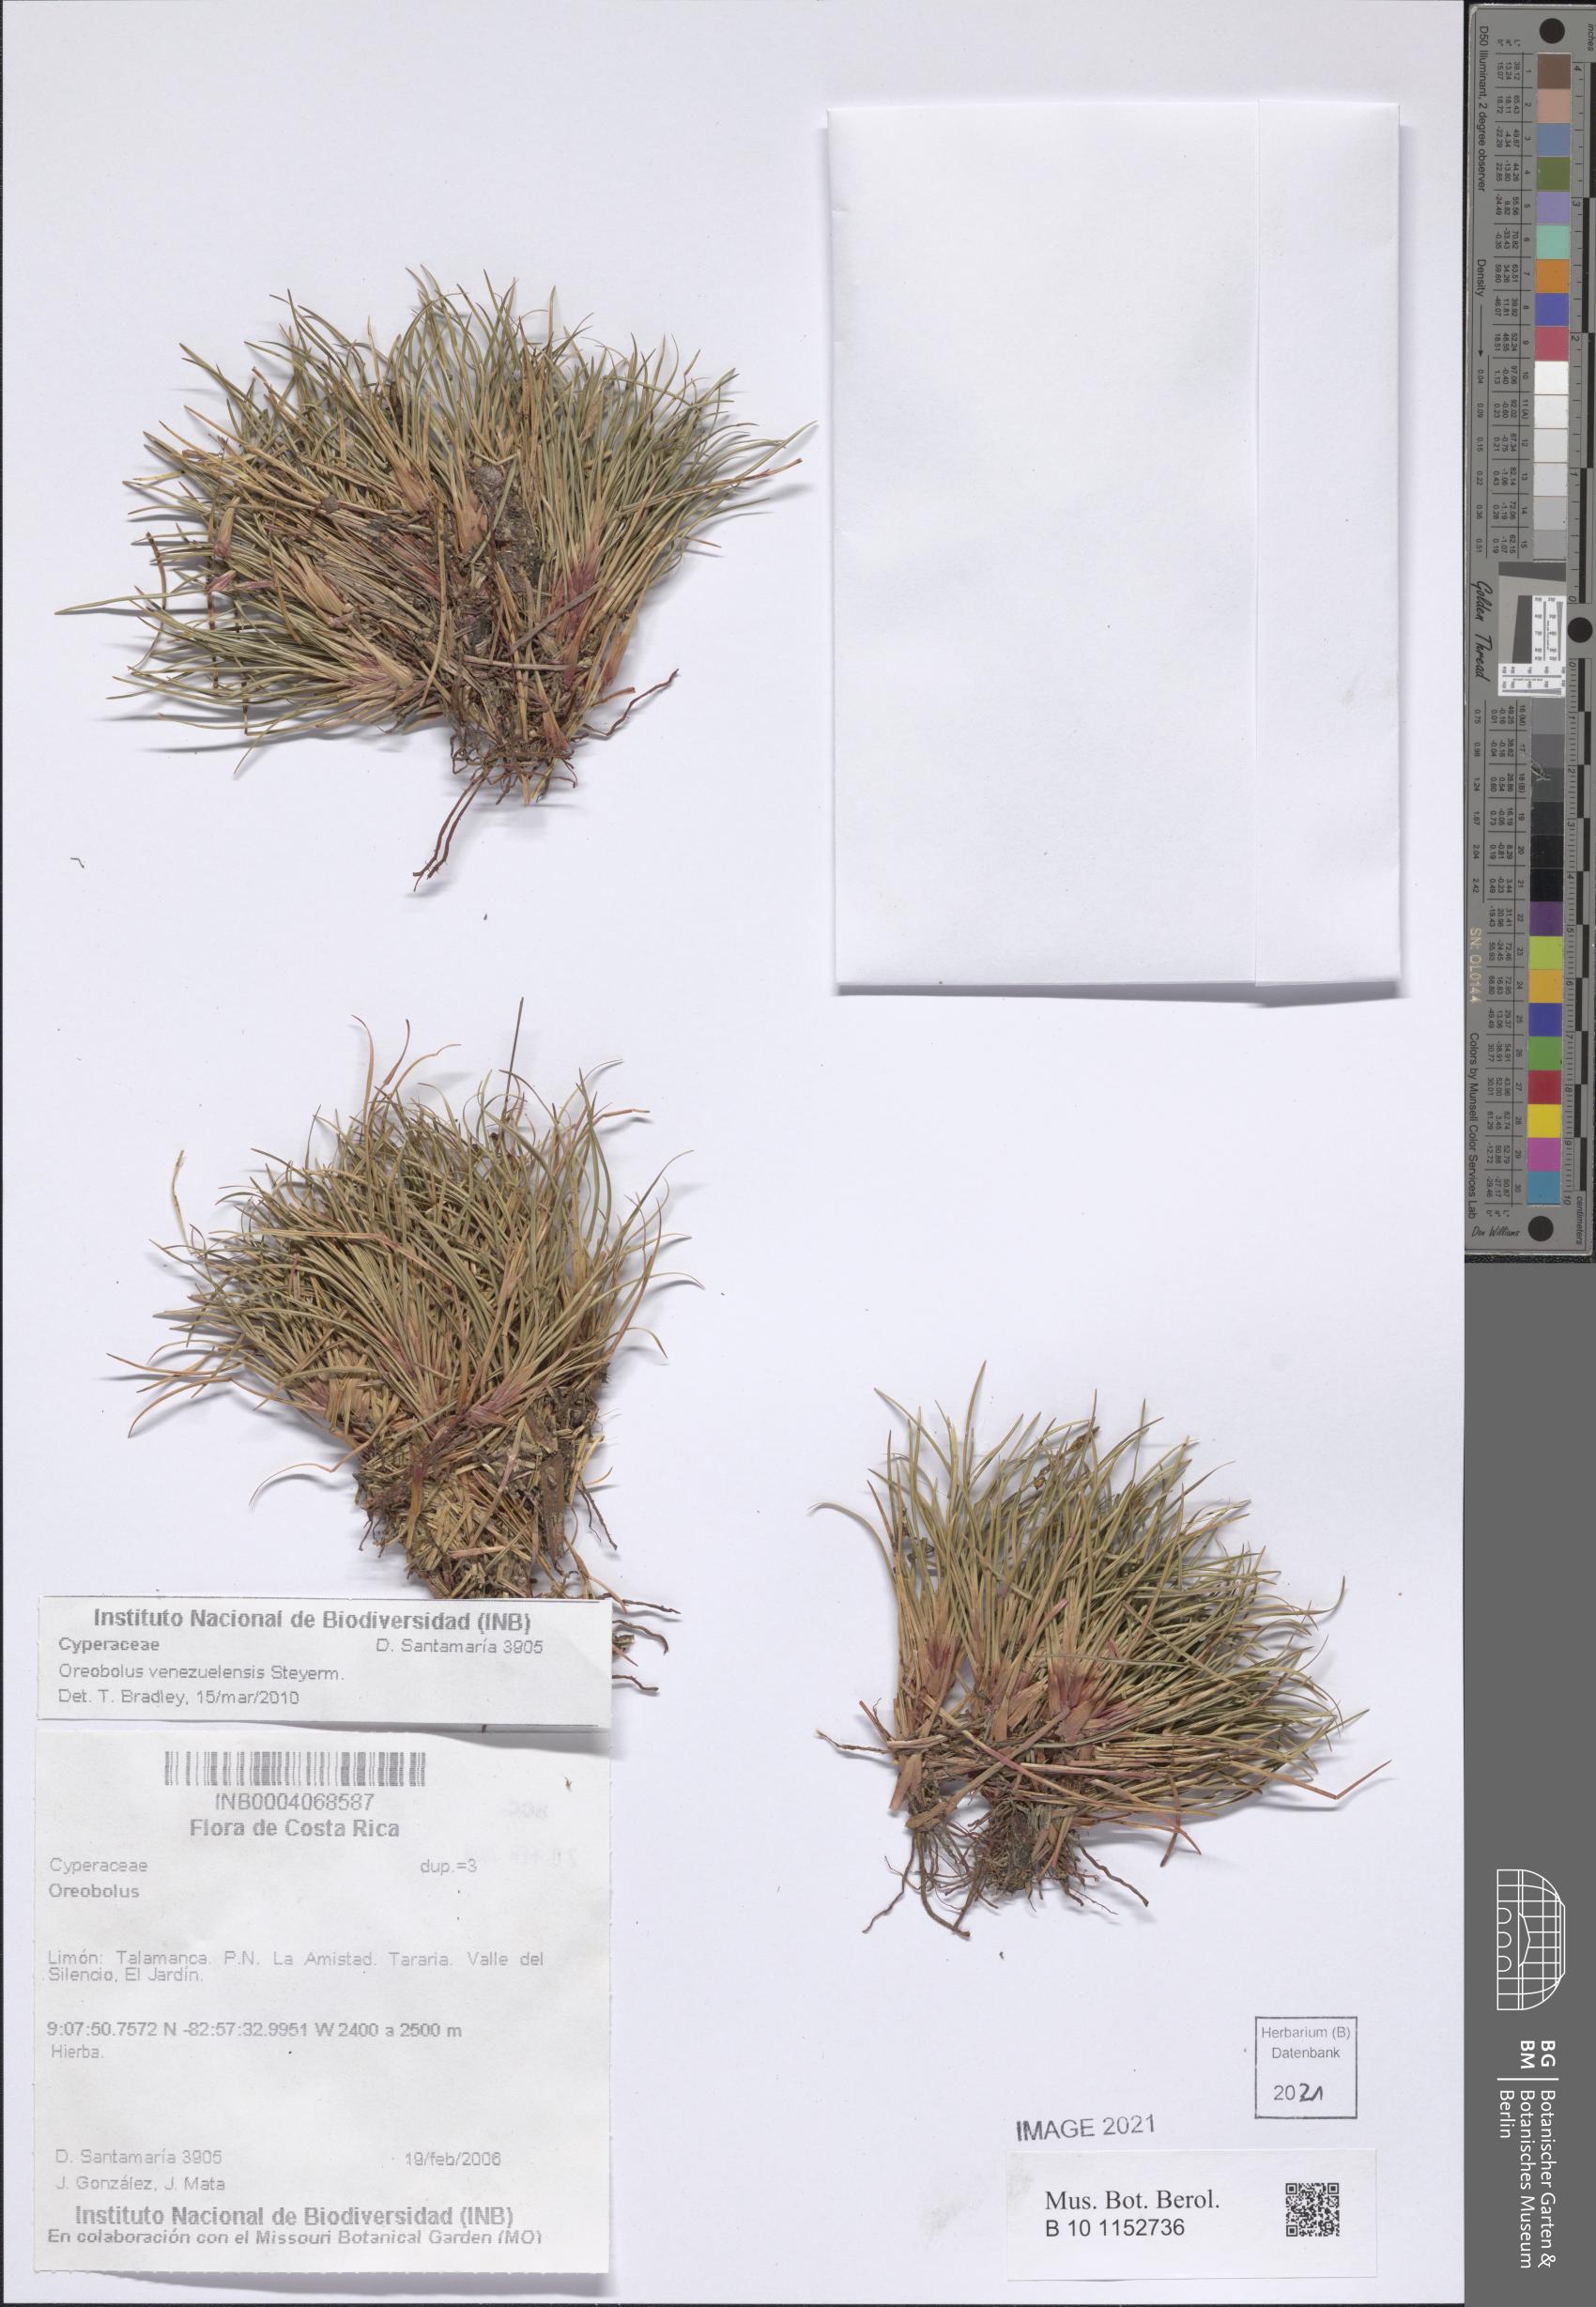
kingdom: Plantae
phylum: Tracheophyta
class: Liliopsida
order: Poales
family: Cyperaceae
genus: Oreobolus
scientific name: Oreobolus venezuelensis
